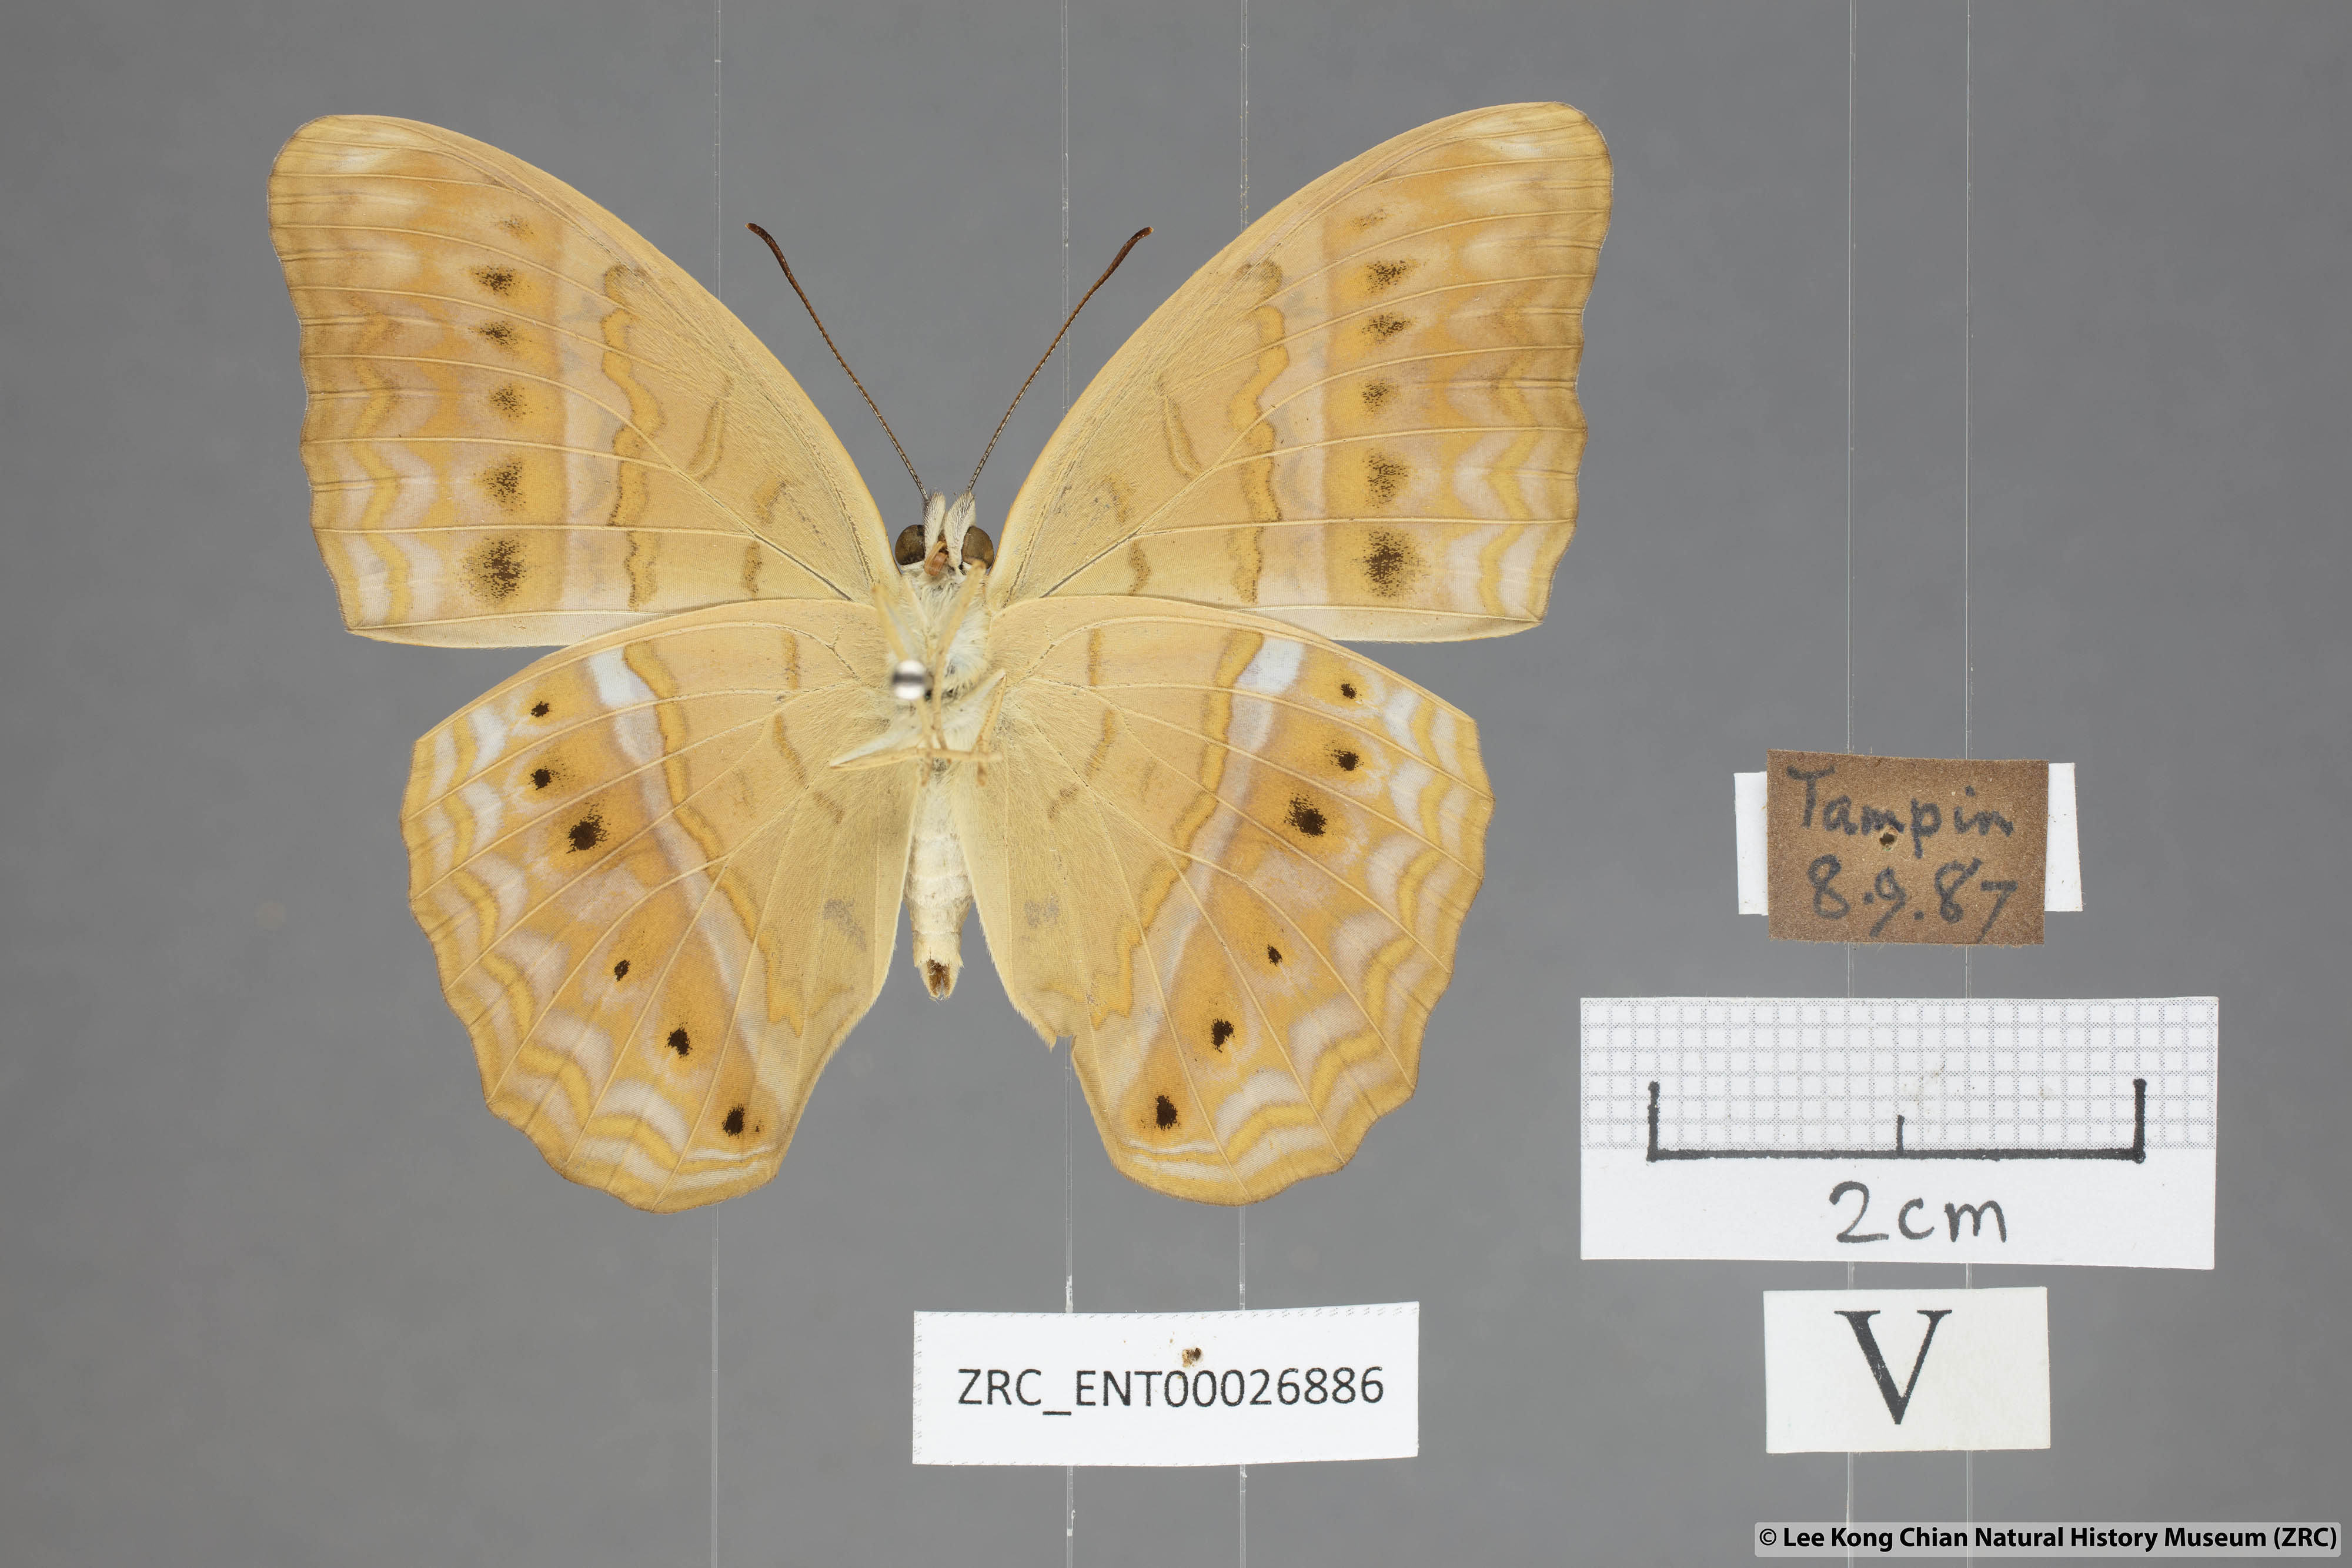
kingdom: Animalia
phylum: Arthropoda
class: Insecta
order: Lepidoptera
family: Nymphalidae
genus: Cirrochroa
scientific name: Cirrochroa tyche
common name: Common yeoman
